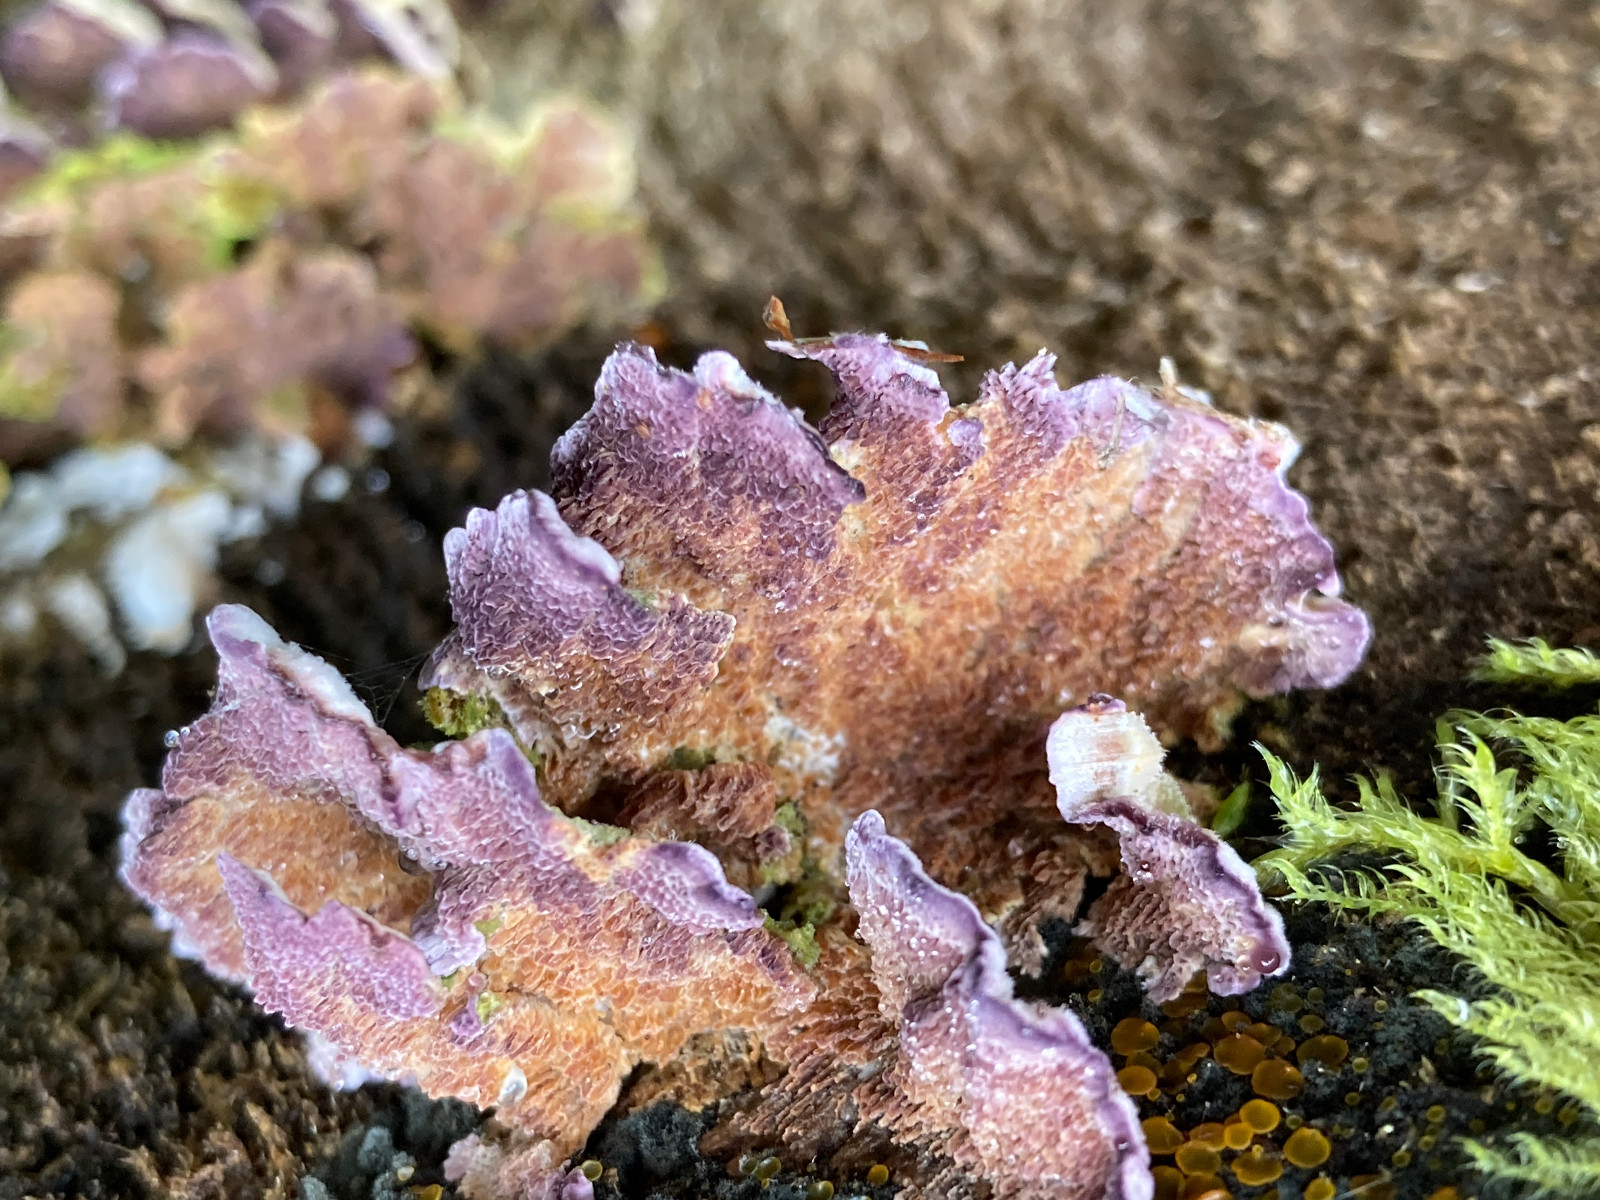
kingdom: Fungi
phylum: Basidiomycota
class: Agaricomycetes
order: Hymenochaetales
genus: Trichaptum
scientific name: Trichaptum fuscoviolaceum
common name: tandet violporesvamp
